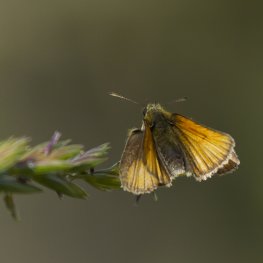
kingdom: Animalia
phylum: Arthropoda
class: Insecta
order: Lepidoptera
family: Hesperiidae
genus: Thymelicus
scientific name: Thymelicus lineola
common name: European Skipper
